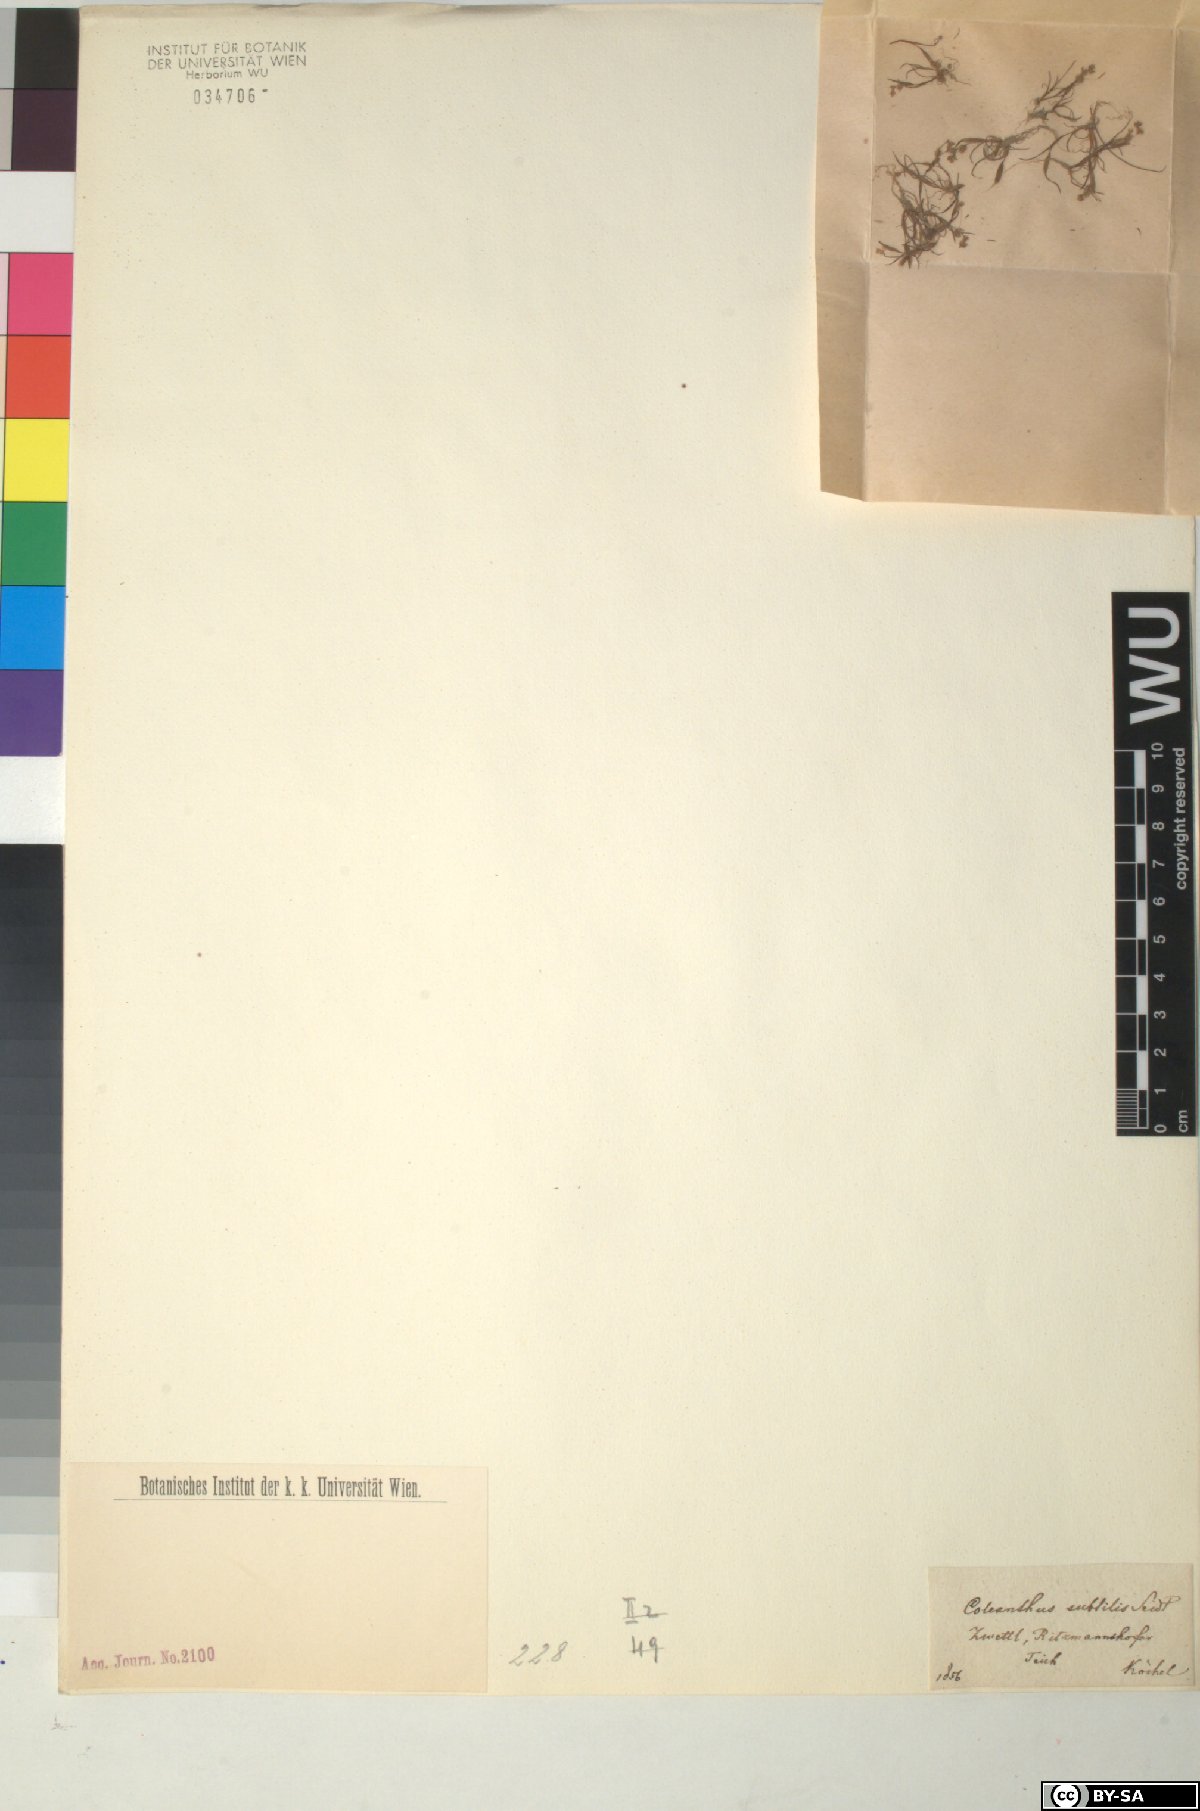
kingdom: Plantae
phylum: Tracheophyta
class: Liliopsida
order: Poales
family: Poaceae
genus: Coleanthus
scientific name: Coleanthus subtilis
